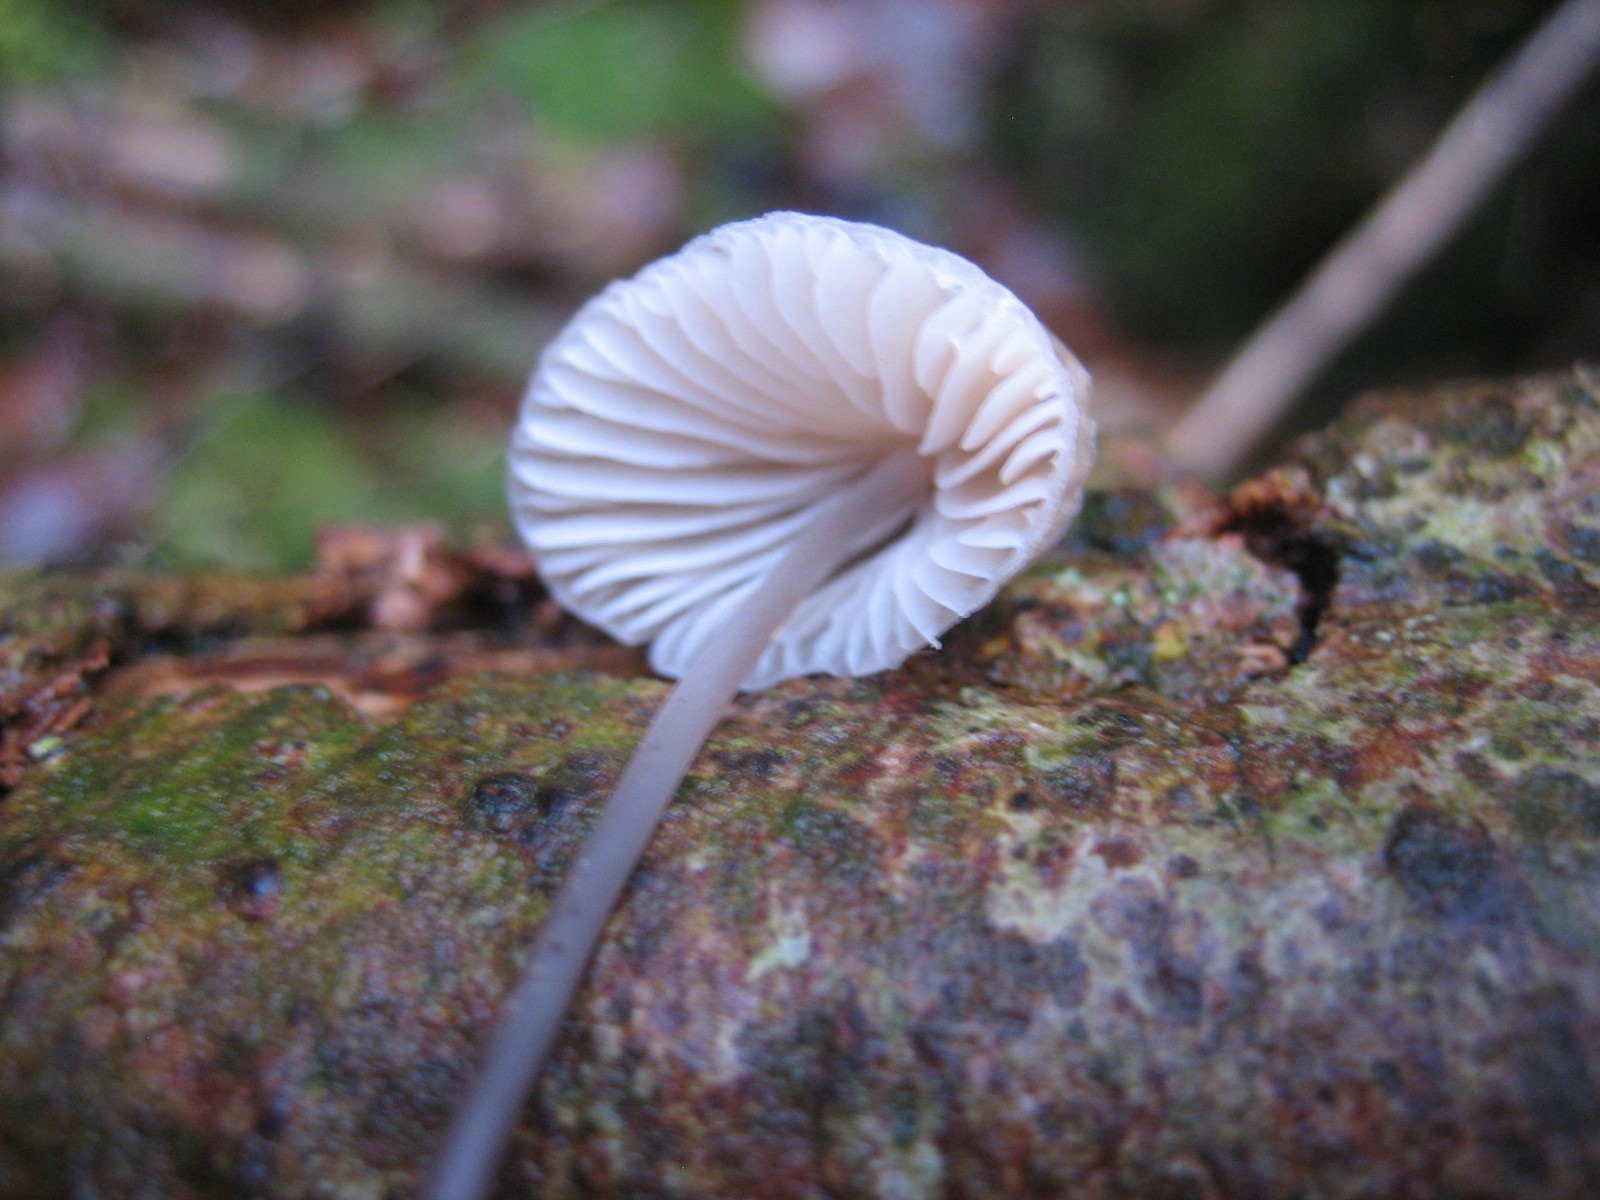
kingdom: Fungi
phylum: Basidiomycota
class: Agaricomycetes
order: Agaricales
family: Mycenaceae
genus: Mycena
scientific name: Mycena
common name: huesvamp
